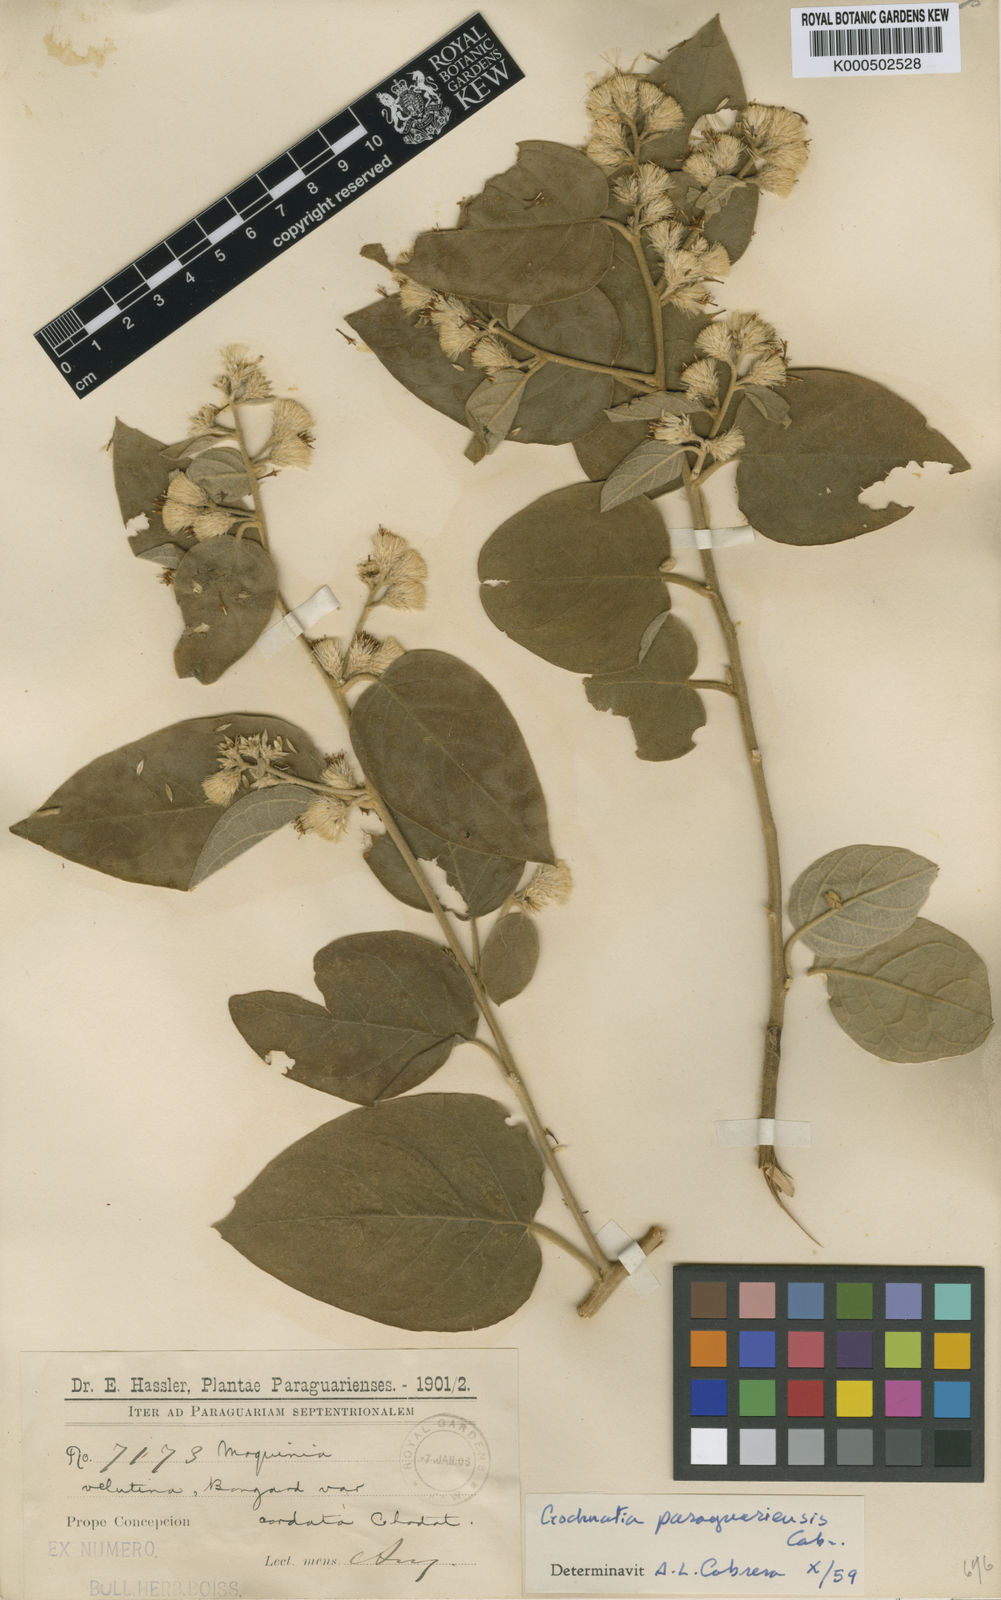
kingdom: Plantae
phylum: Tracheophyta
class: Magnoliopsida
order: Asterales
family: Asteraceae
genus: Moquiniastrum
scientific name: Moquiniastrum barrosoae
